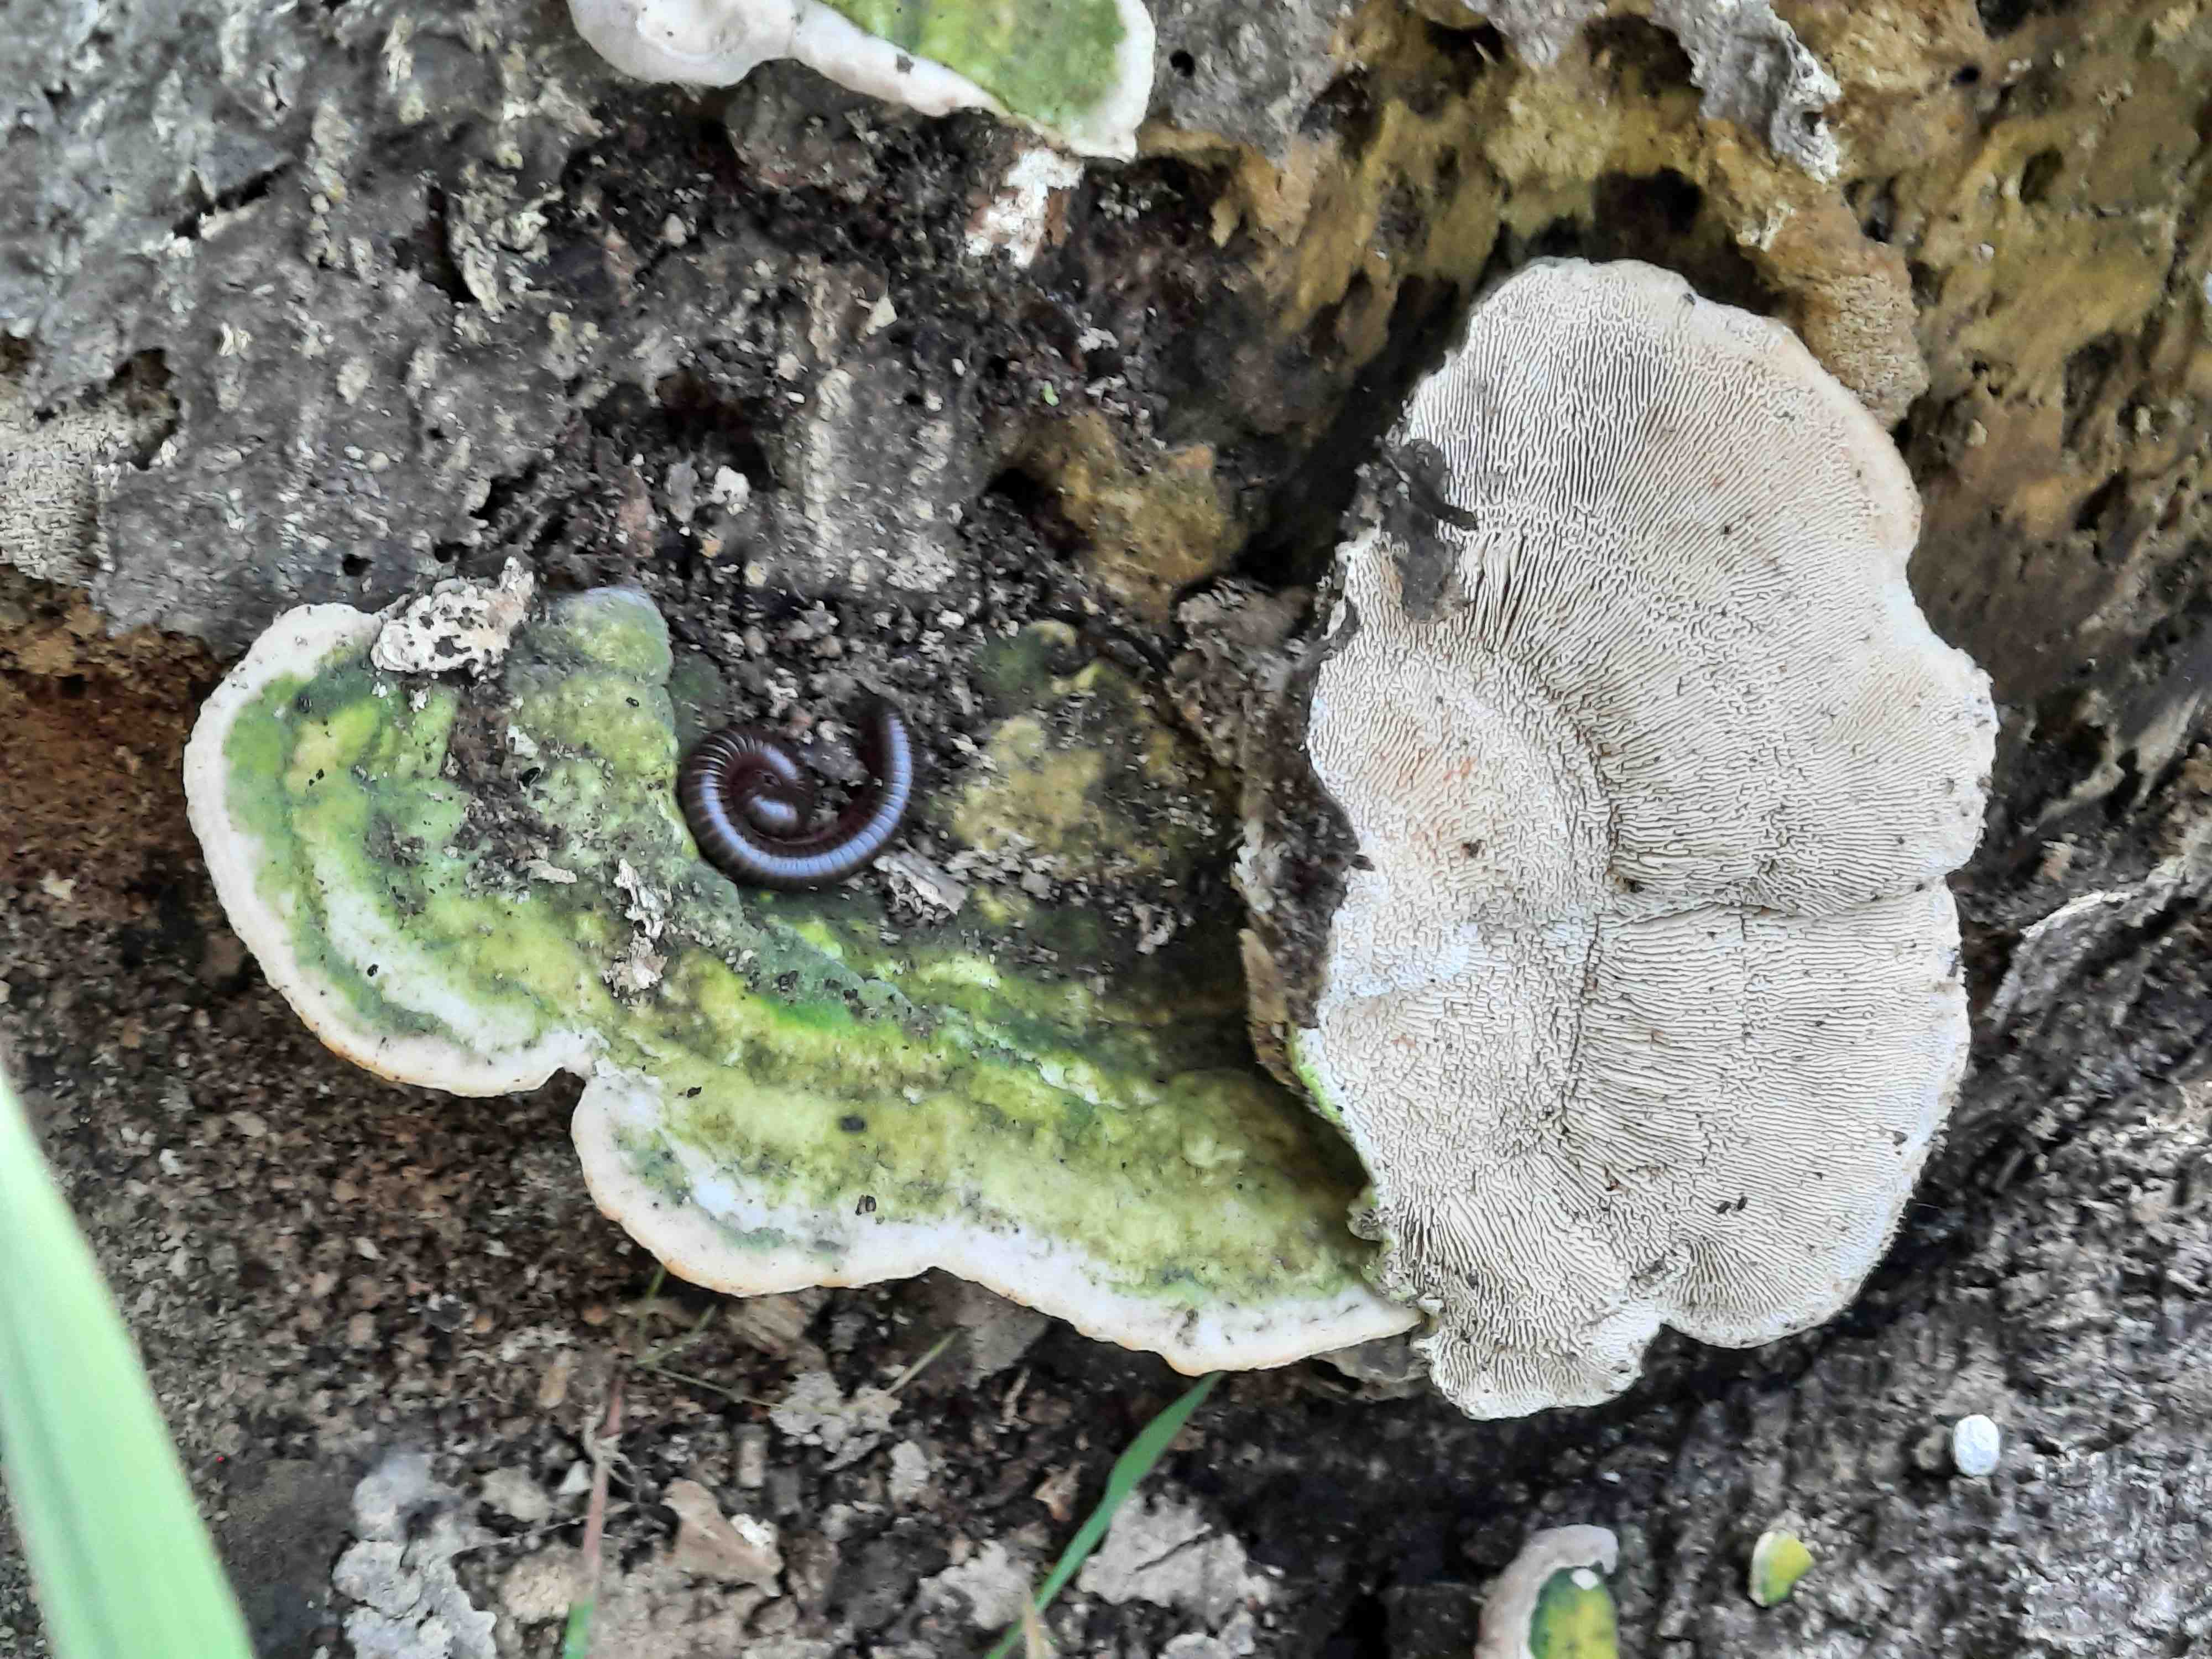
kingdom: Fungi
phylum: Basidiomycota
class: Agaricomycetes
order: Polyporales
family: Polyporaceae
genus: Trametes
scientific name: Trametes gibbosa
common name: puklet læderporesvamp
